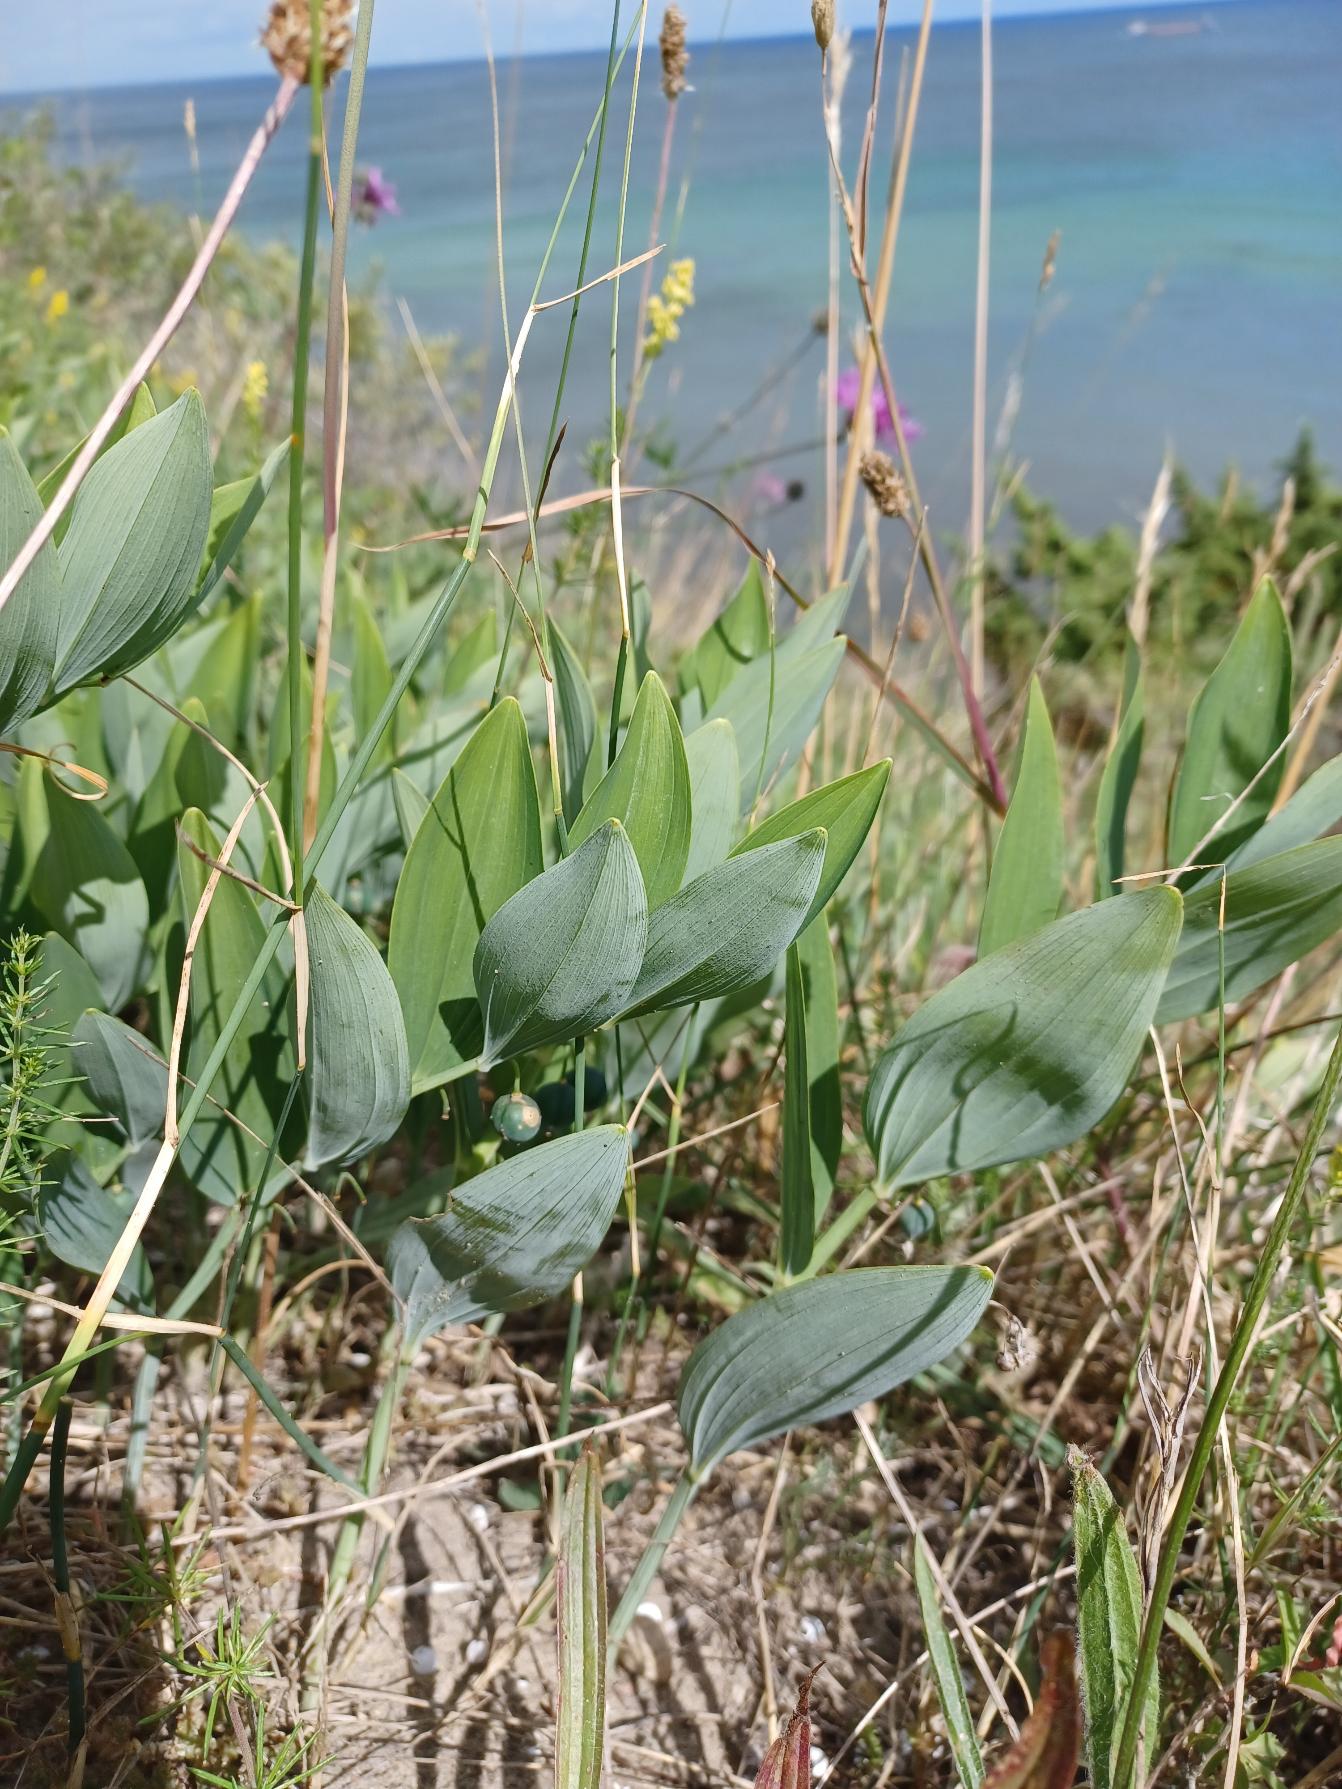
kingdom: Plantae
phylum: Tracheophyta
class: Liliopsida
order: Asparagales
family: Asparagaceae
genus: Polygonatum
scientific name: Polygonatum odoratum
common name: Kantet konval
